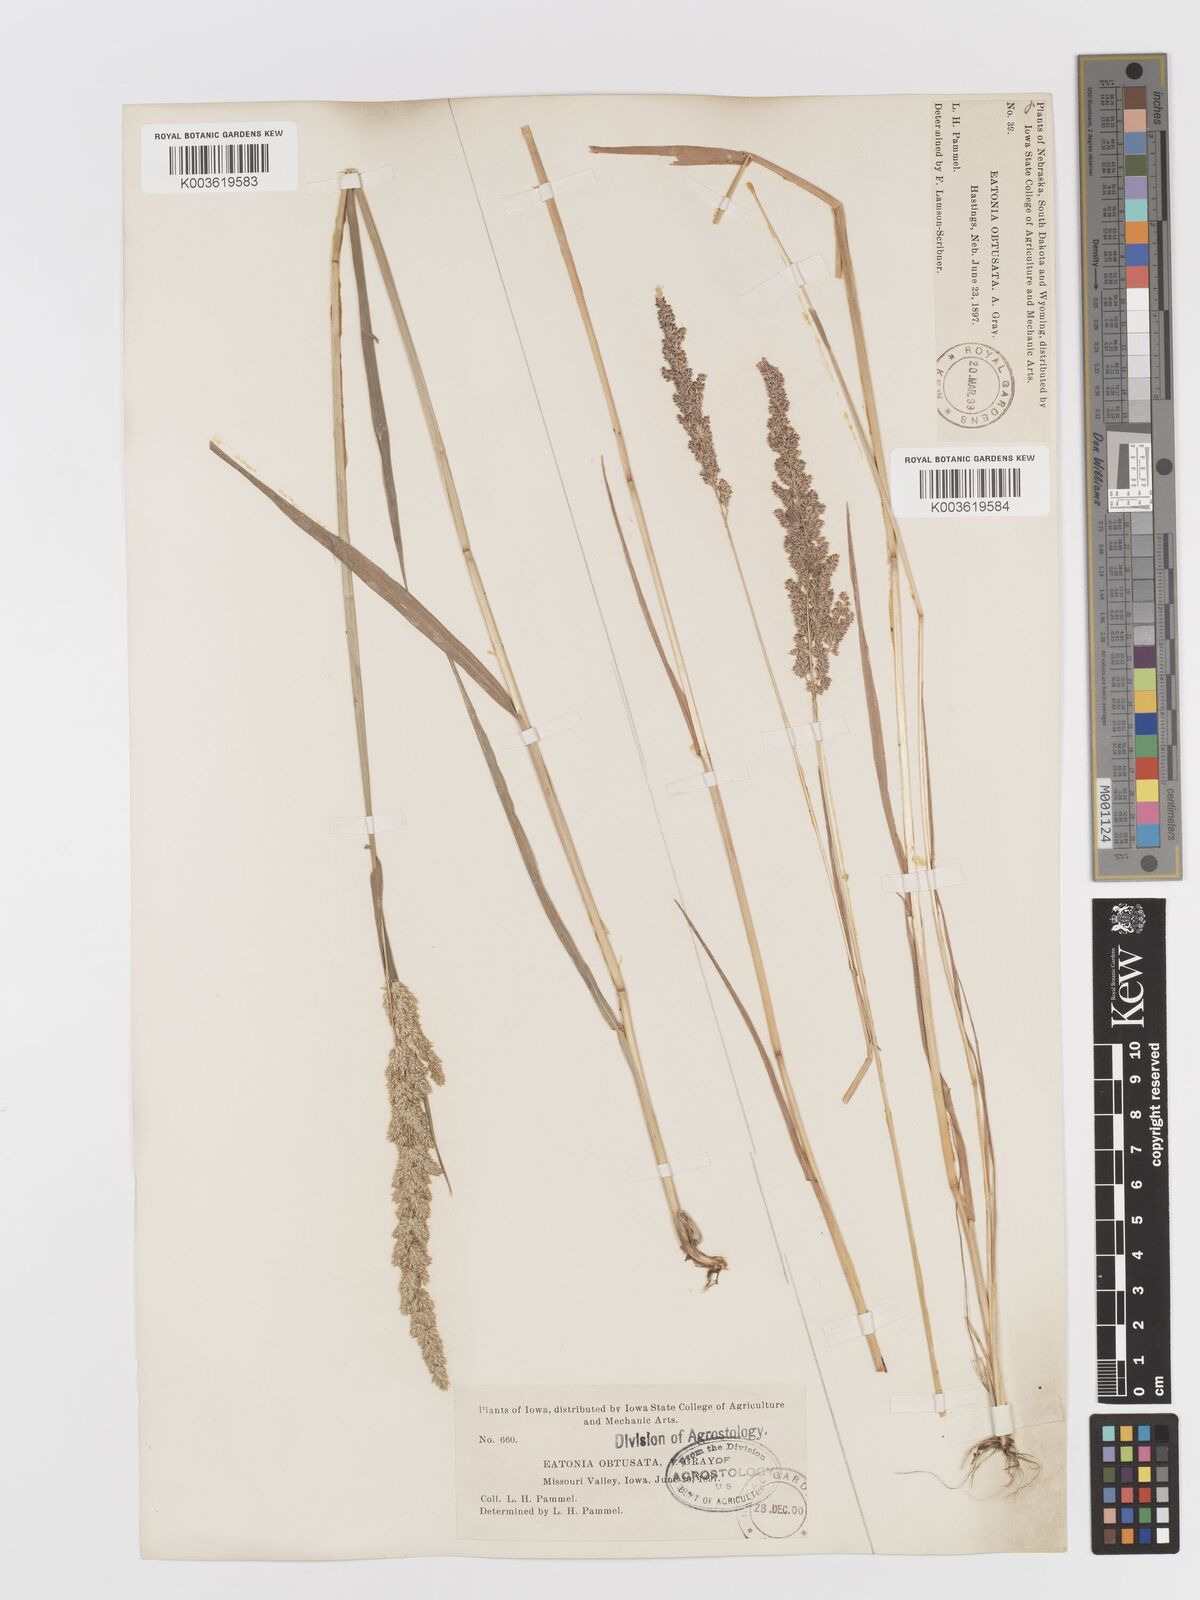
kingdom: Plantae
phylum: Tracheophyta
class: Liliopsida
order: Poales
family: Poaceae
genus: Sphenopholis
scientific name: Sphenopholis obtusata
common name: Prairie grass
